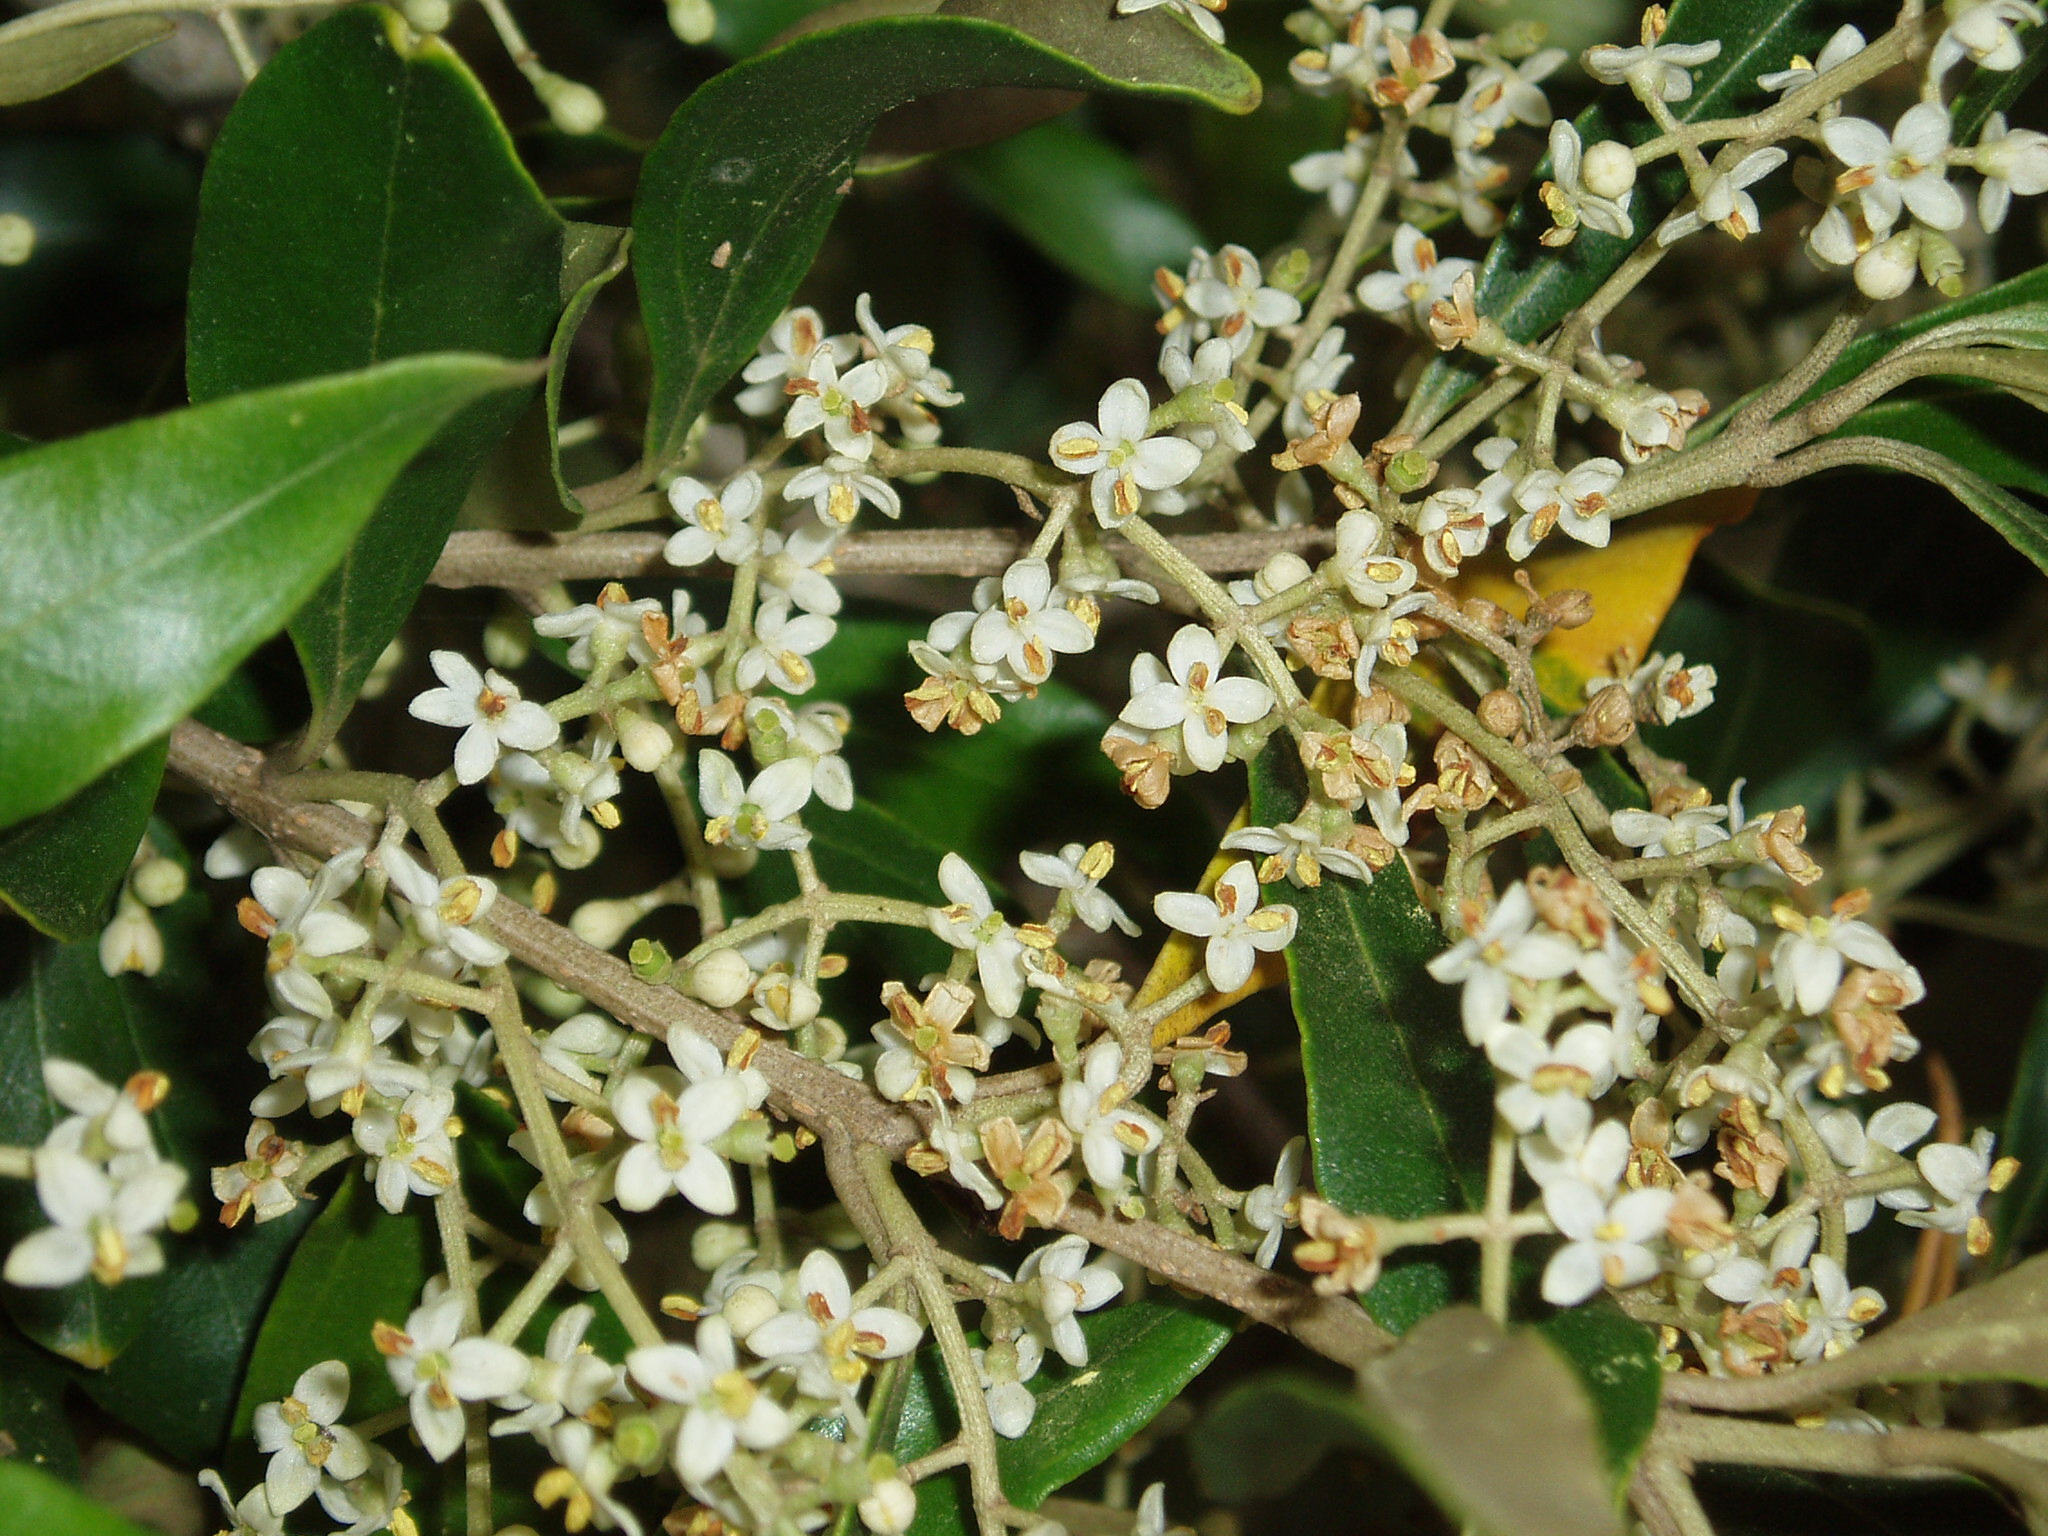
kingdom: Plantae
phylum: Tracheophyta
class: Magnoliopsida
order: Lamiales
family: Oleaceae
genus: Olea
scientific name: Olea europaea
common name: Olive
